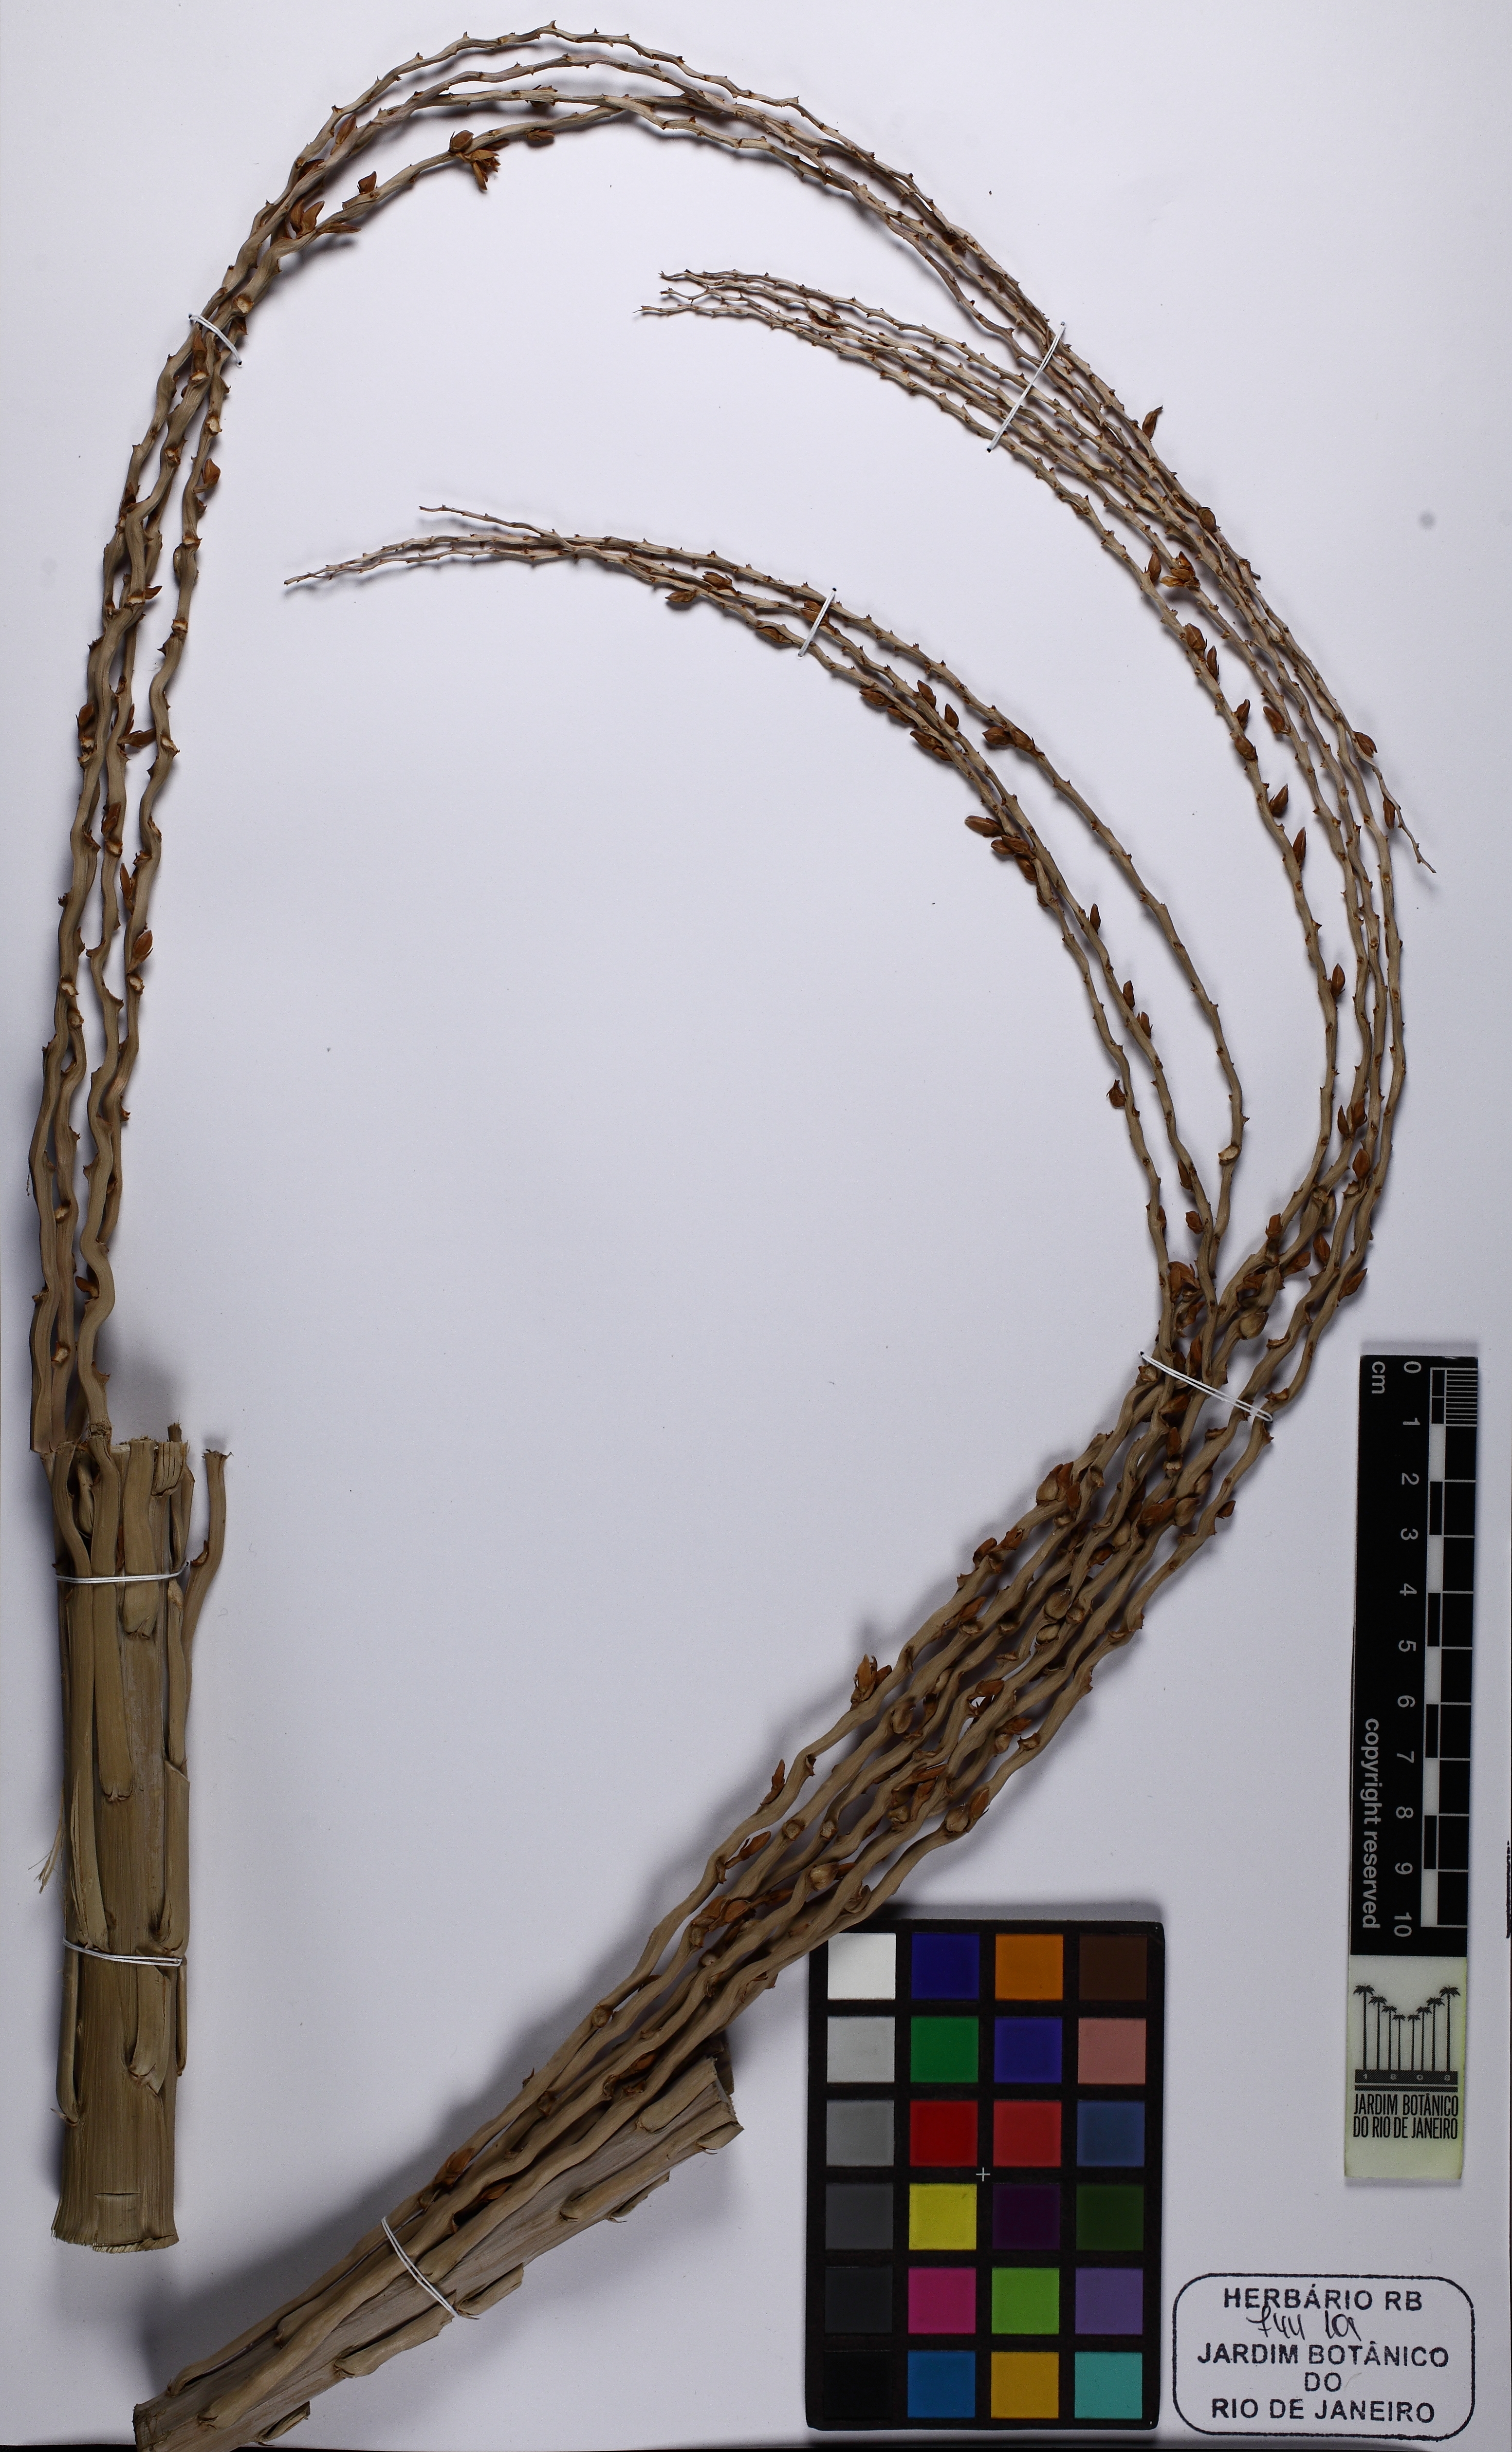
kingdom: Plantae
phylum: Tracheophyta
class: Liliopsida
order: Arecales
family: Arecaceae
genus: Butia
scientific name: Butia odorata
